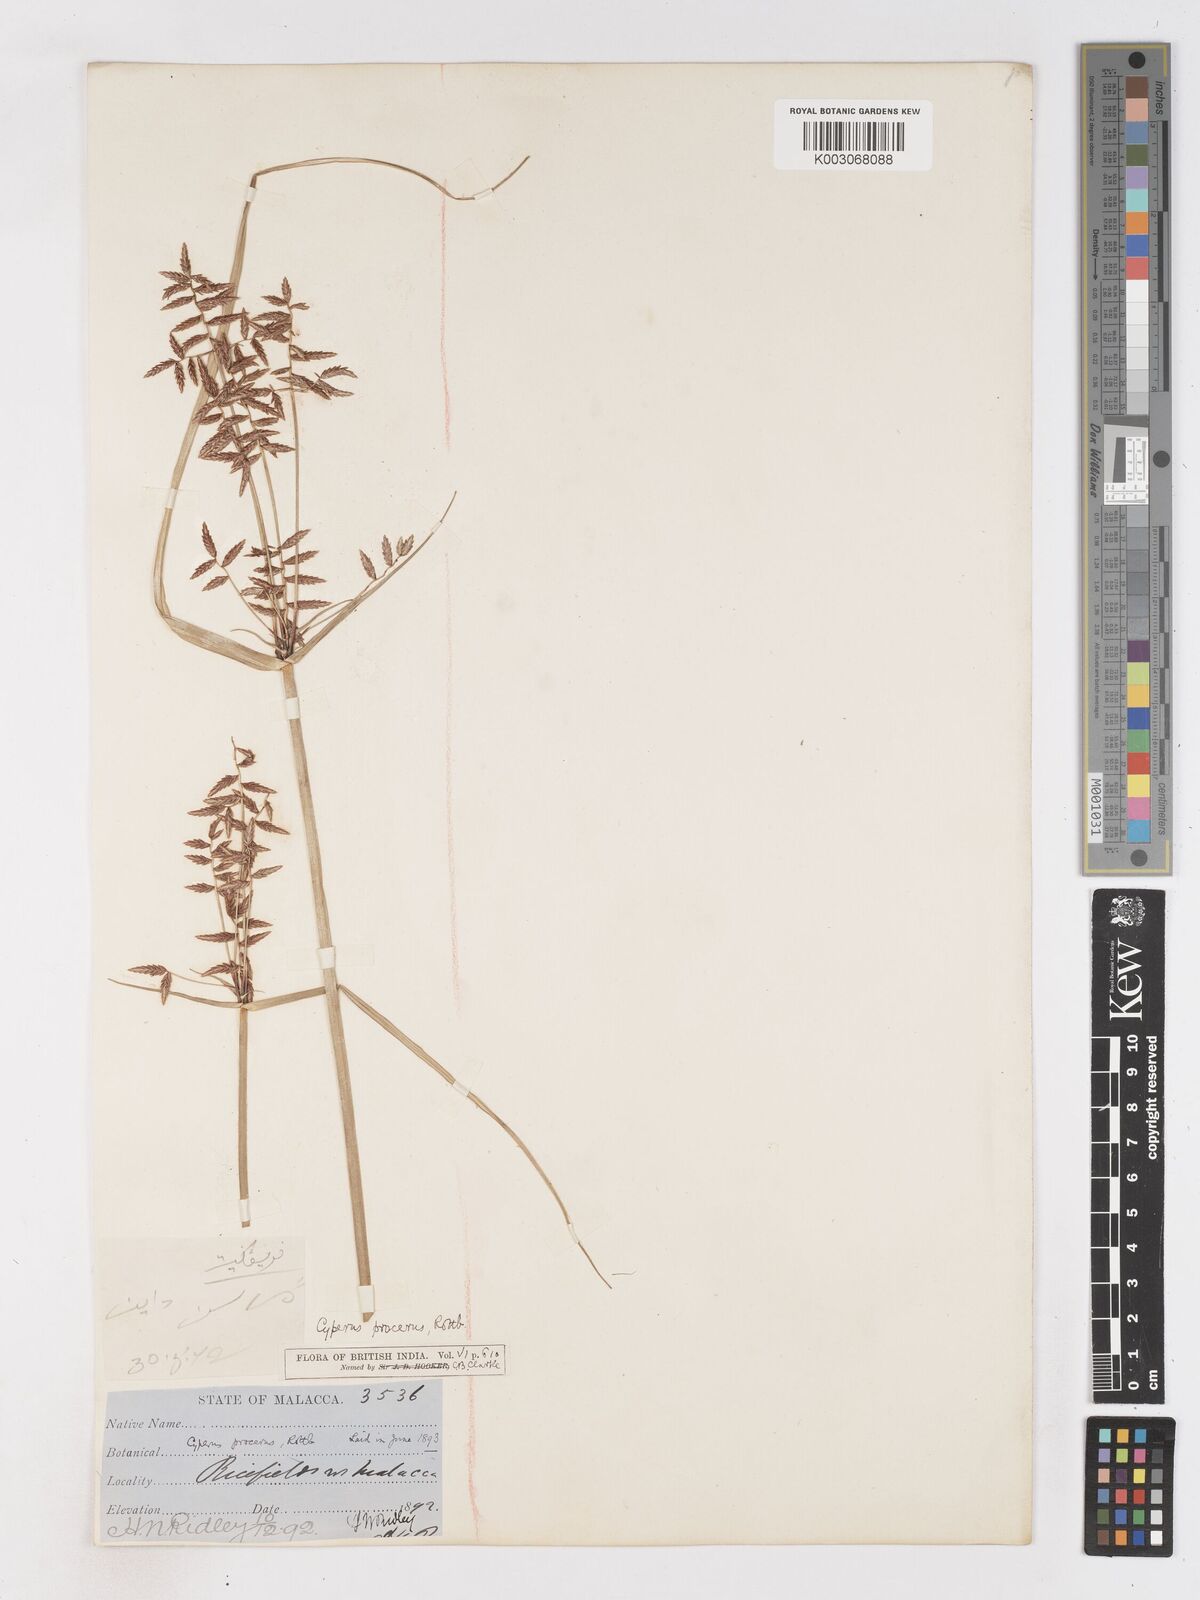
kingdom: Plantae
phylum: Tracheophyta
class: Liliopsida
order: Poales
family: Cyperaceae
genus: Cyperus
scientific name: Cyperus procerus
